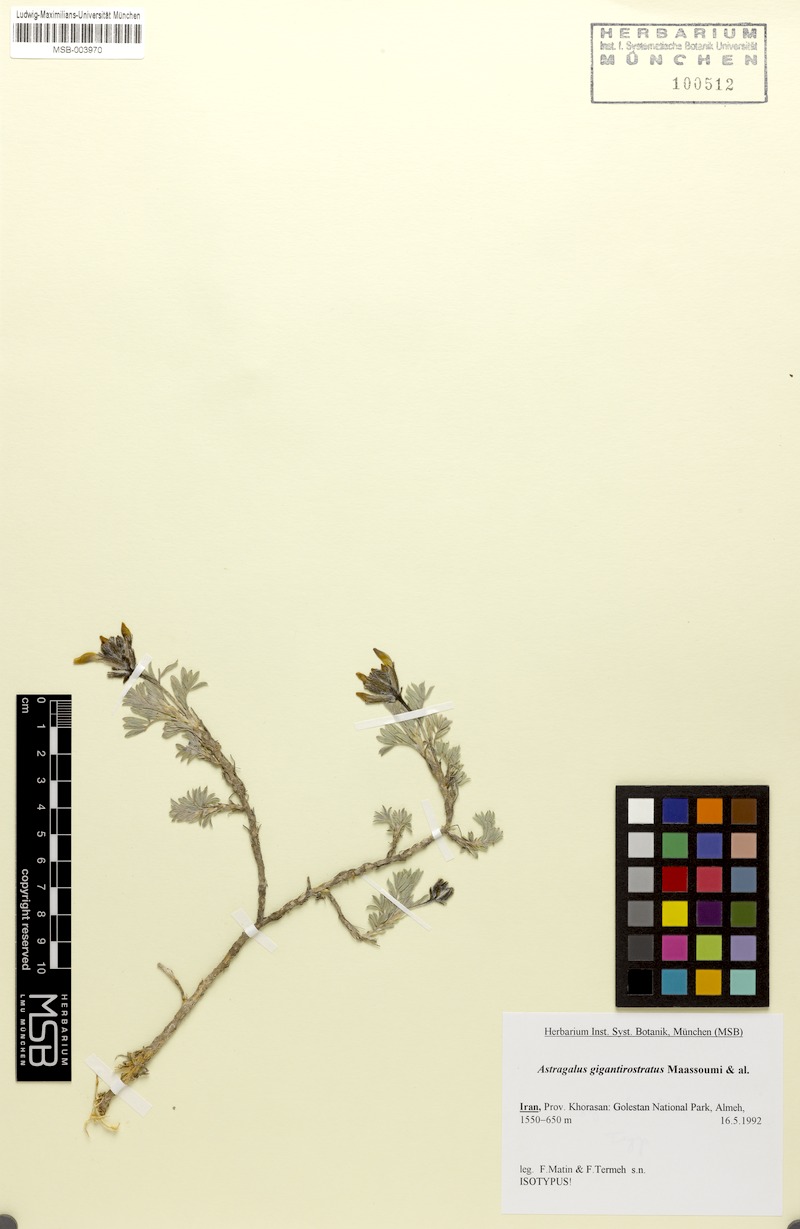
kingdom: Plantae
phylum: Tracheophyta
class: Magnoliopsida
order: Fabales
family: Fabaceae
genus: Astragalus
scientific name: Astragalus gigantirostratus
